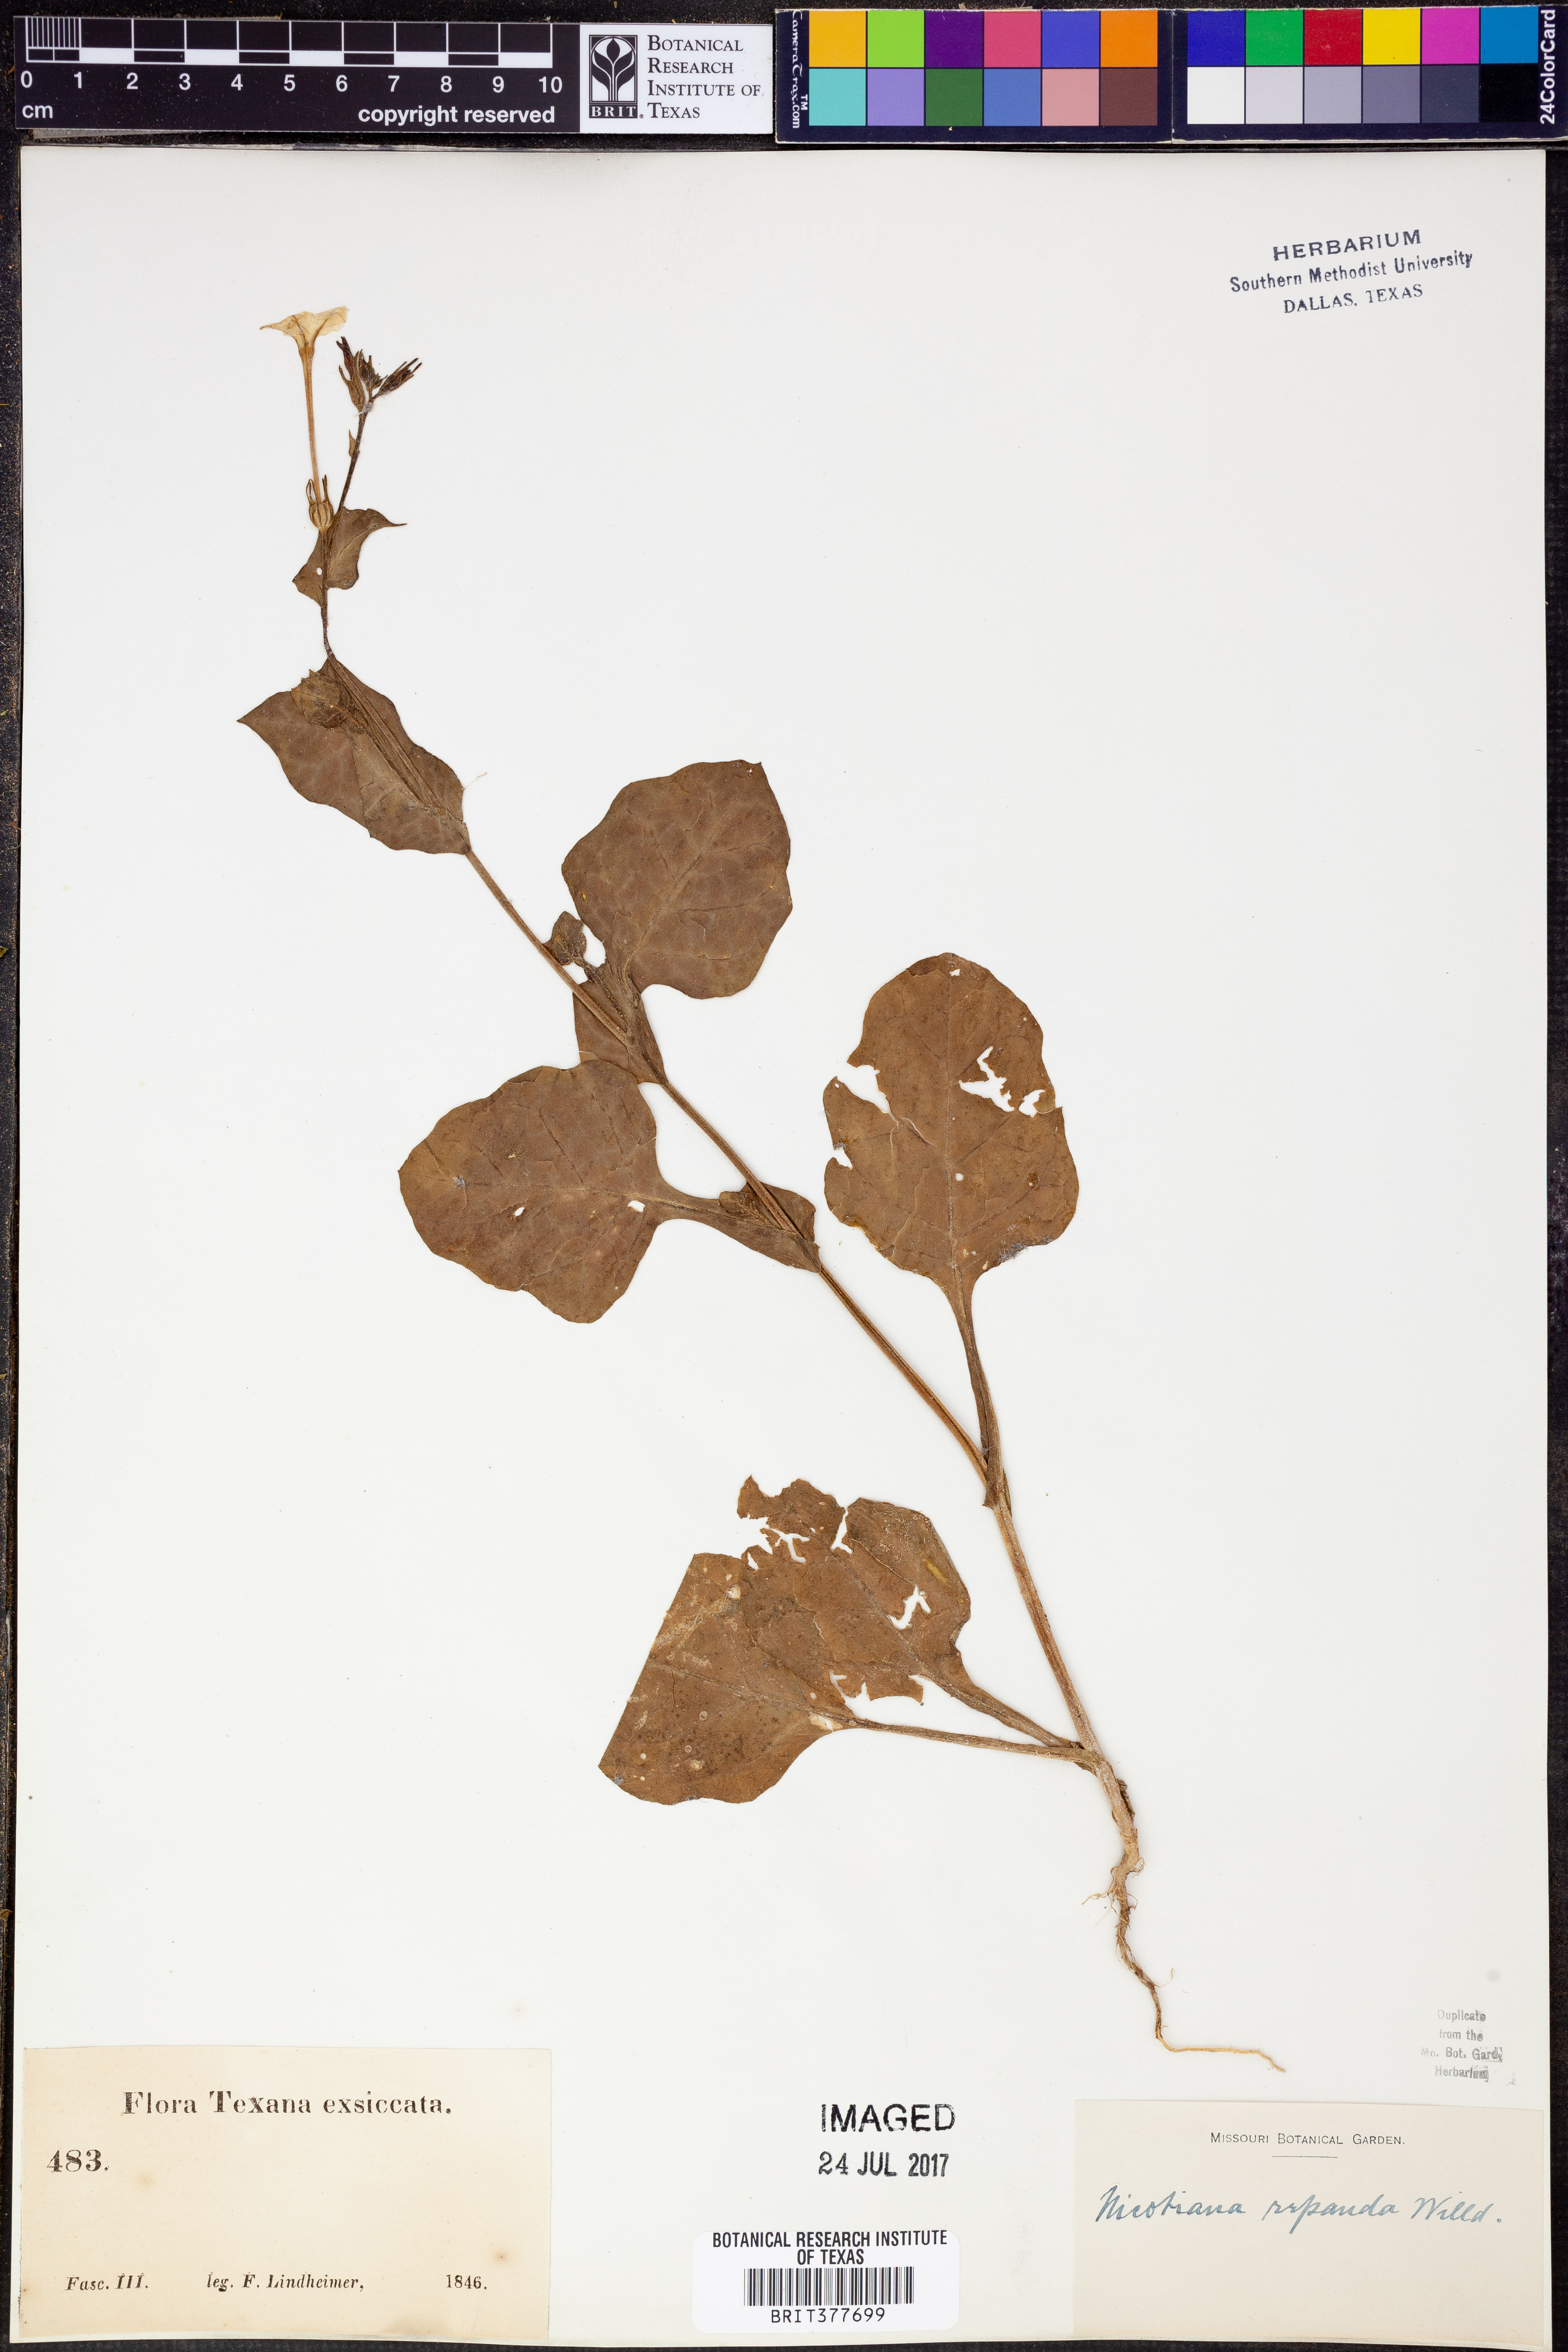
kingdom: Plantae
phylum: Tracheophyta
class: Magnoliopsida
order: Solanales
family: Solanaceae
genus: Nicotiana
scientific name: Nicotiana repanda
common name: Fiddle-leaf tobacco
